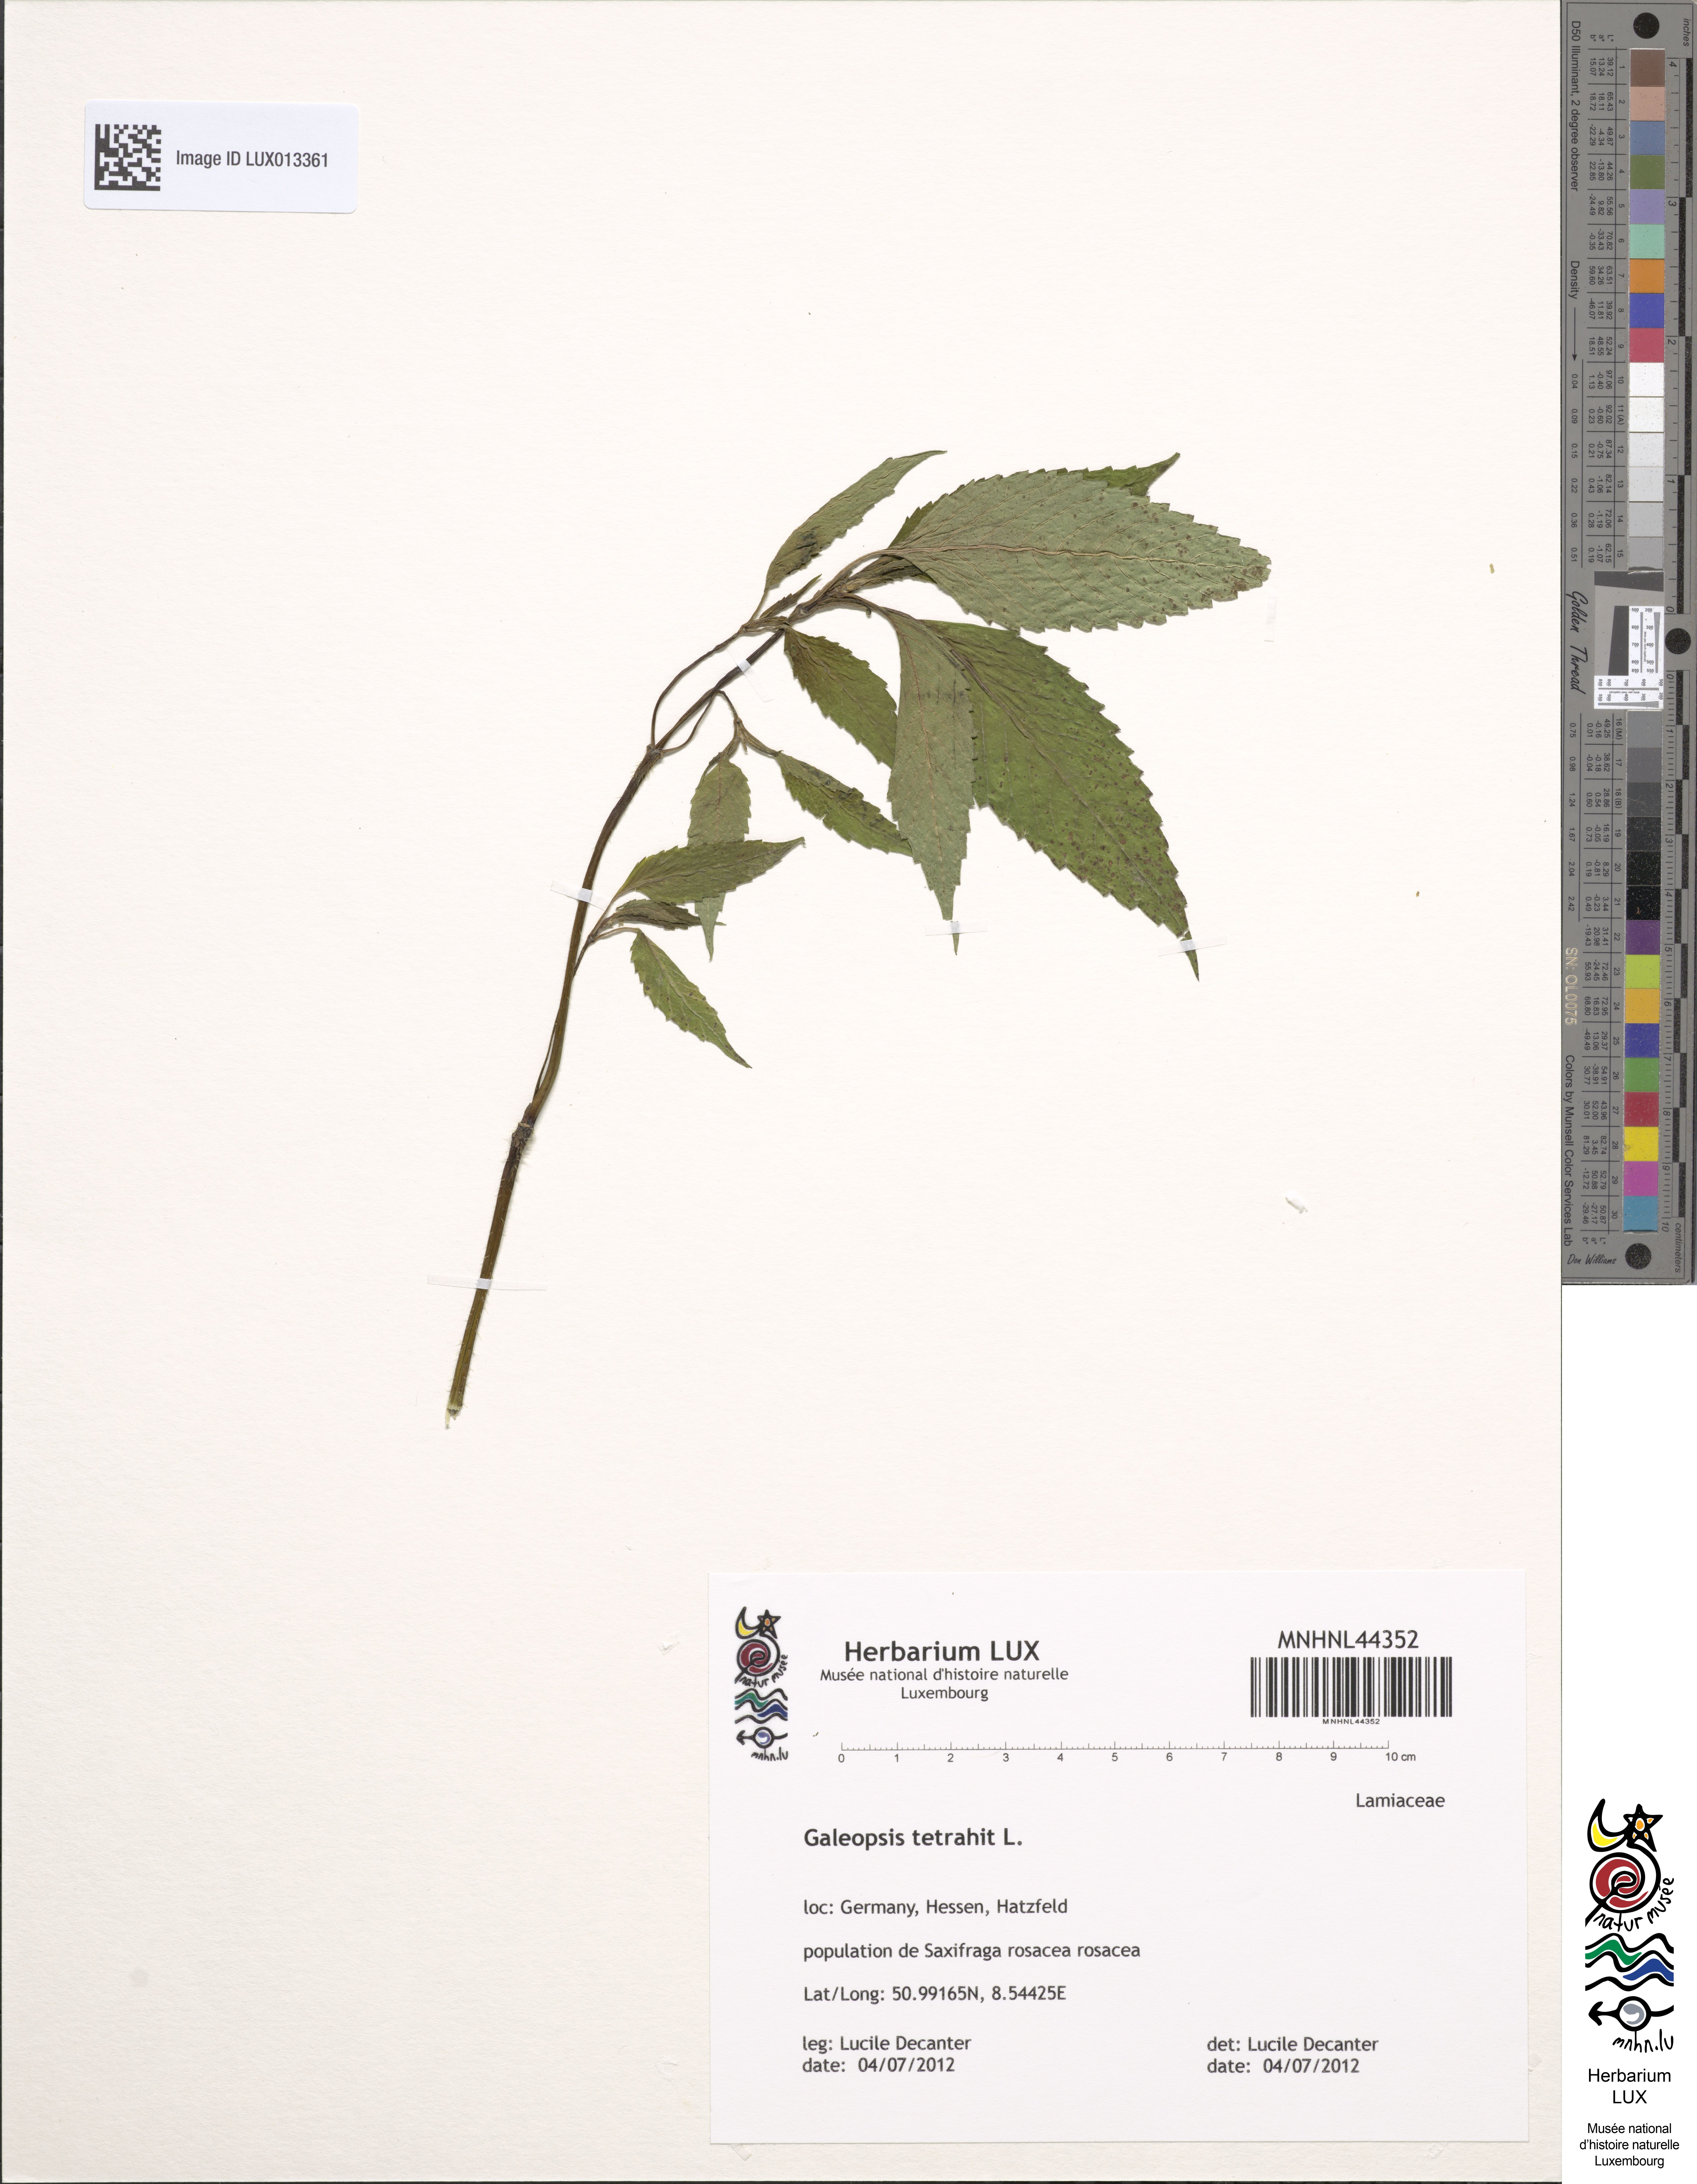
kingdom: Plantae
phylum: Tracheophyta
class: Magnoliopsida
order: Lamiales
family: Lamiaceae
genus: Galeopsis
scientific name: Galeopsis tetrahit
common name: Common hemp-nettle
